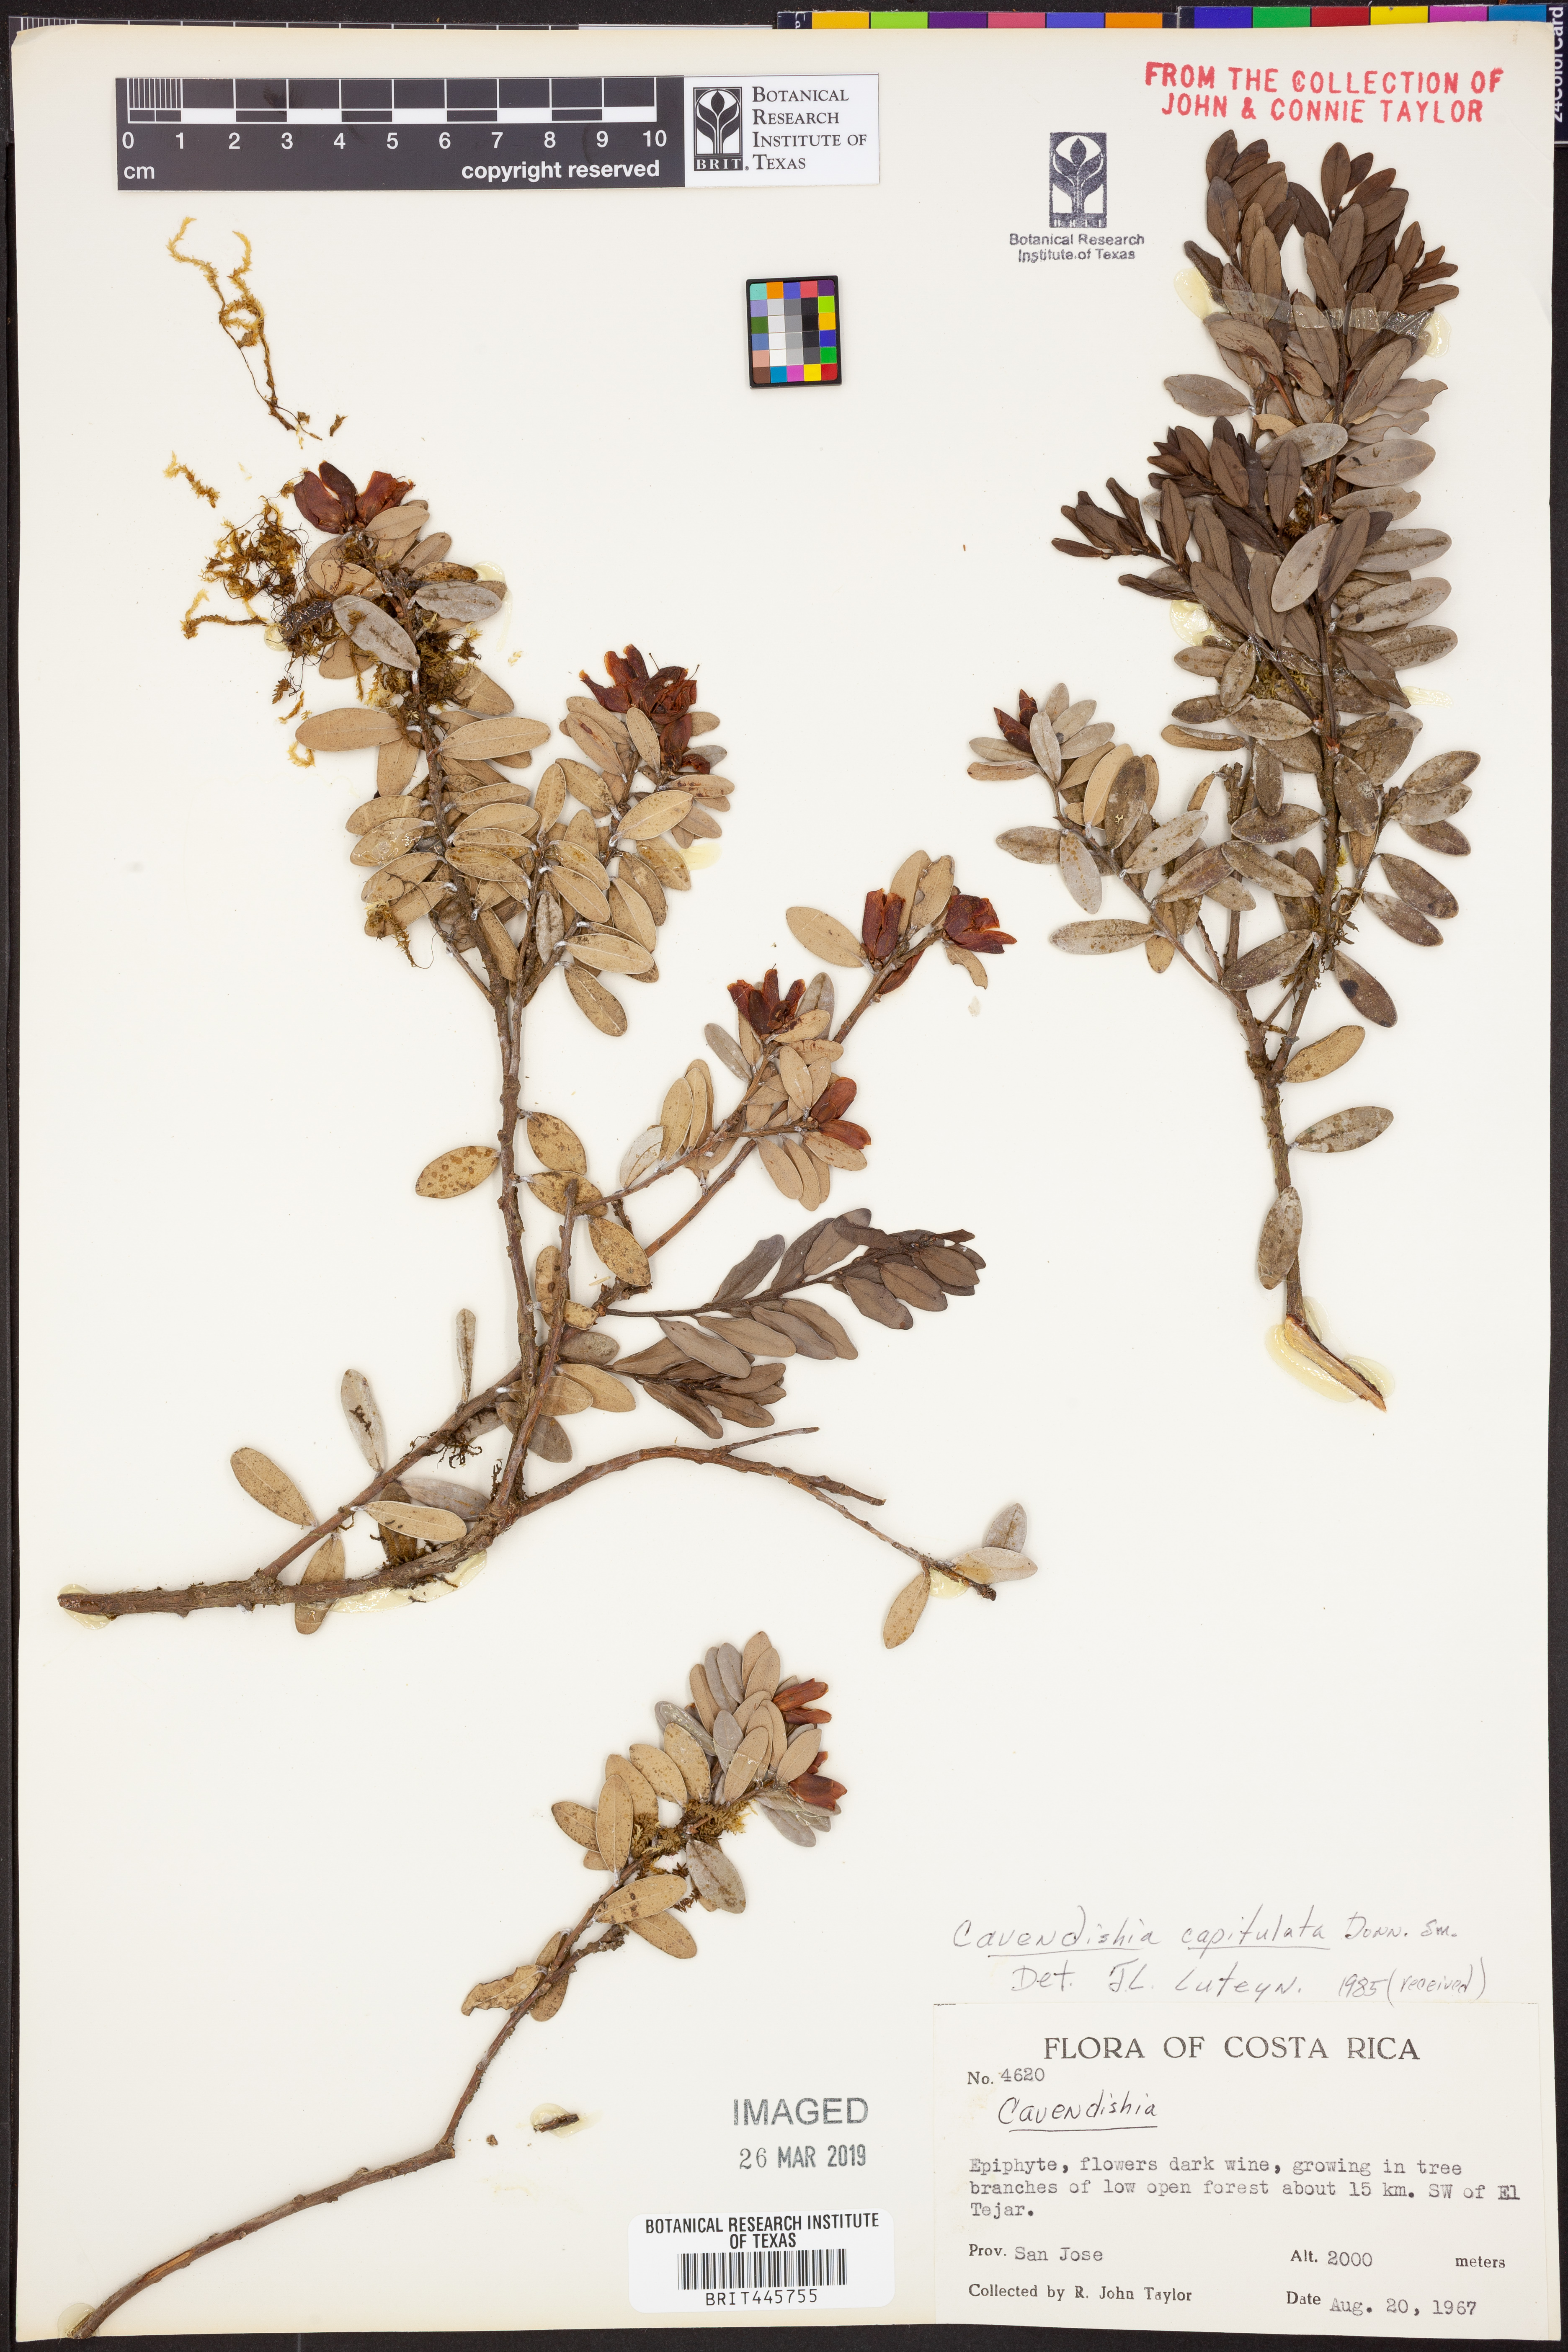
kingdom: Plantae
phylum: Tracheophyta
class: Magnoliopsida
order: Ericales
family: Ericaceae
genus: Cavendishia
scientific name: Cavendishia capitulata
